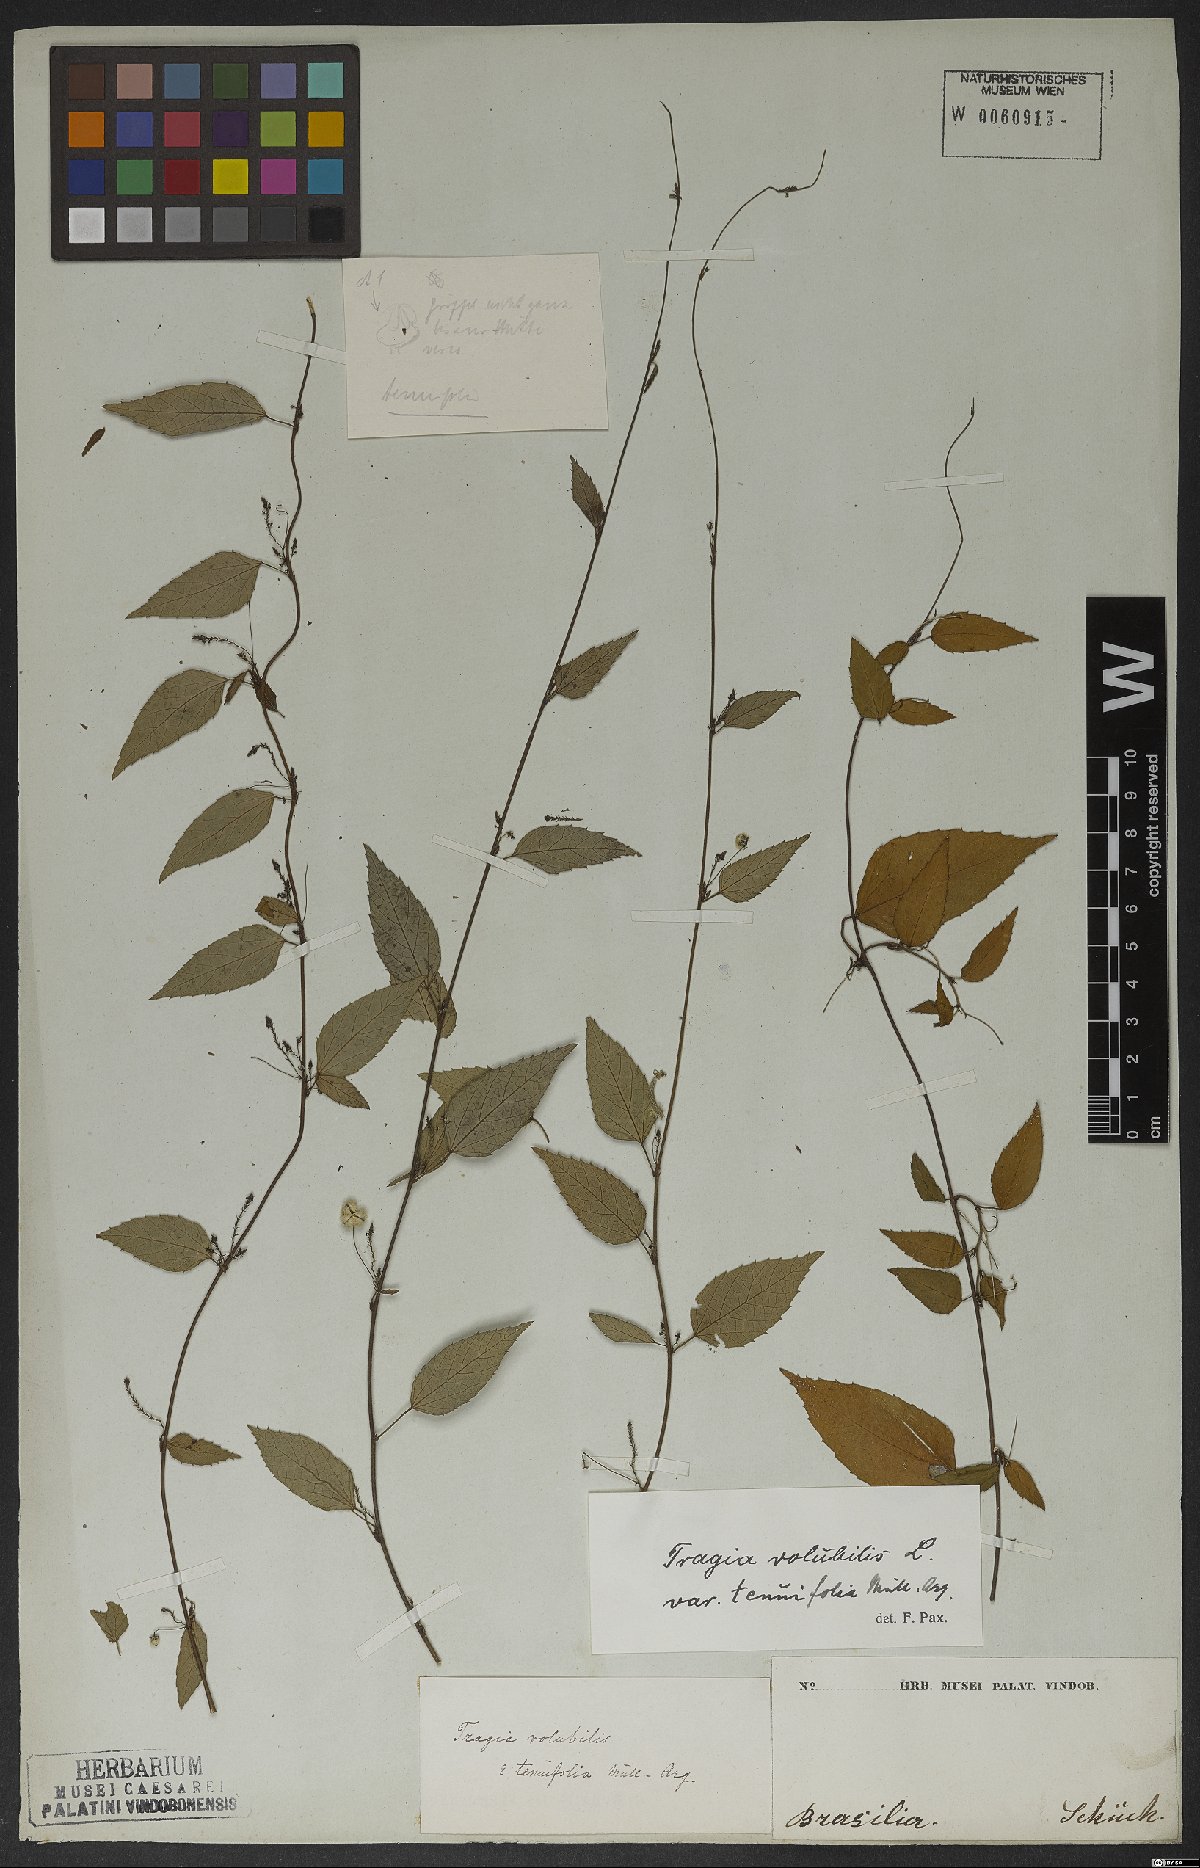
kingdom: Plantae
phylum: Tracheophyta
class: Magnoliopsida
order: Malpighiales
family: Euphorbiaceae
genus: Tragia
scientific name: Tragia volubilis
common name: Twining cow-itch
